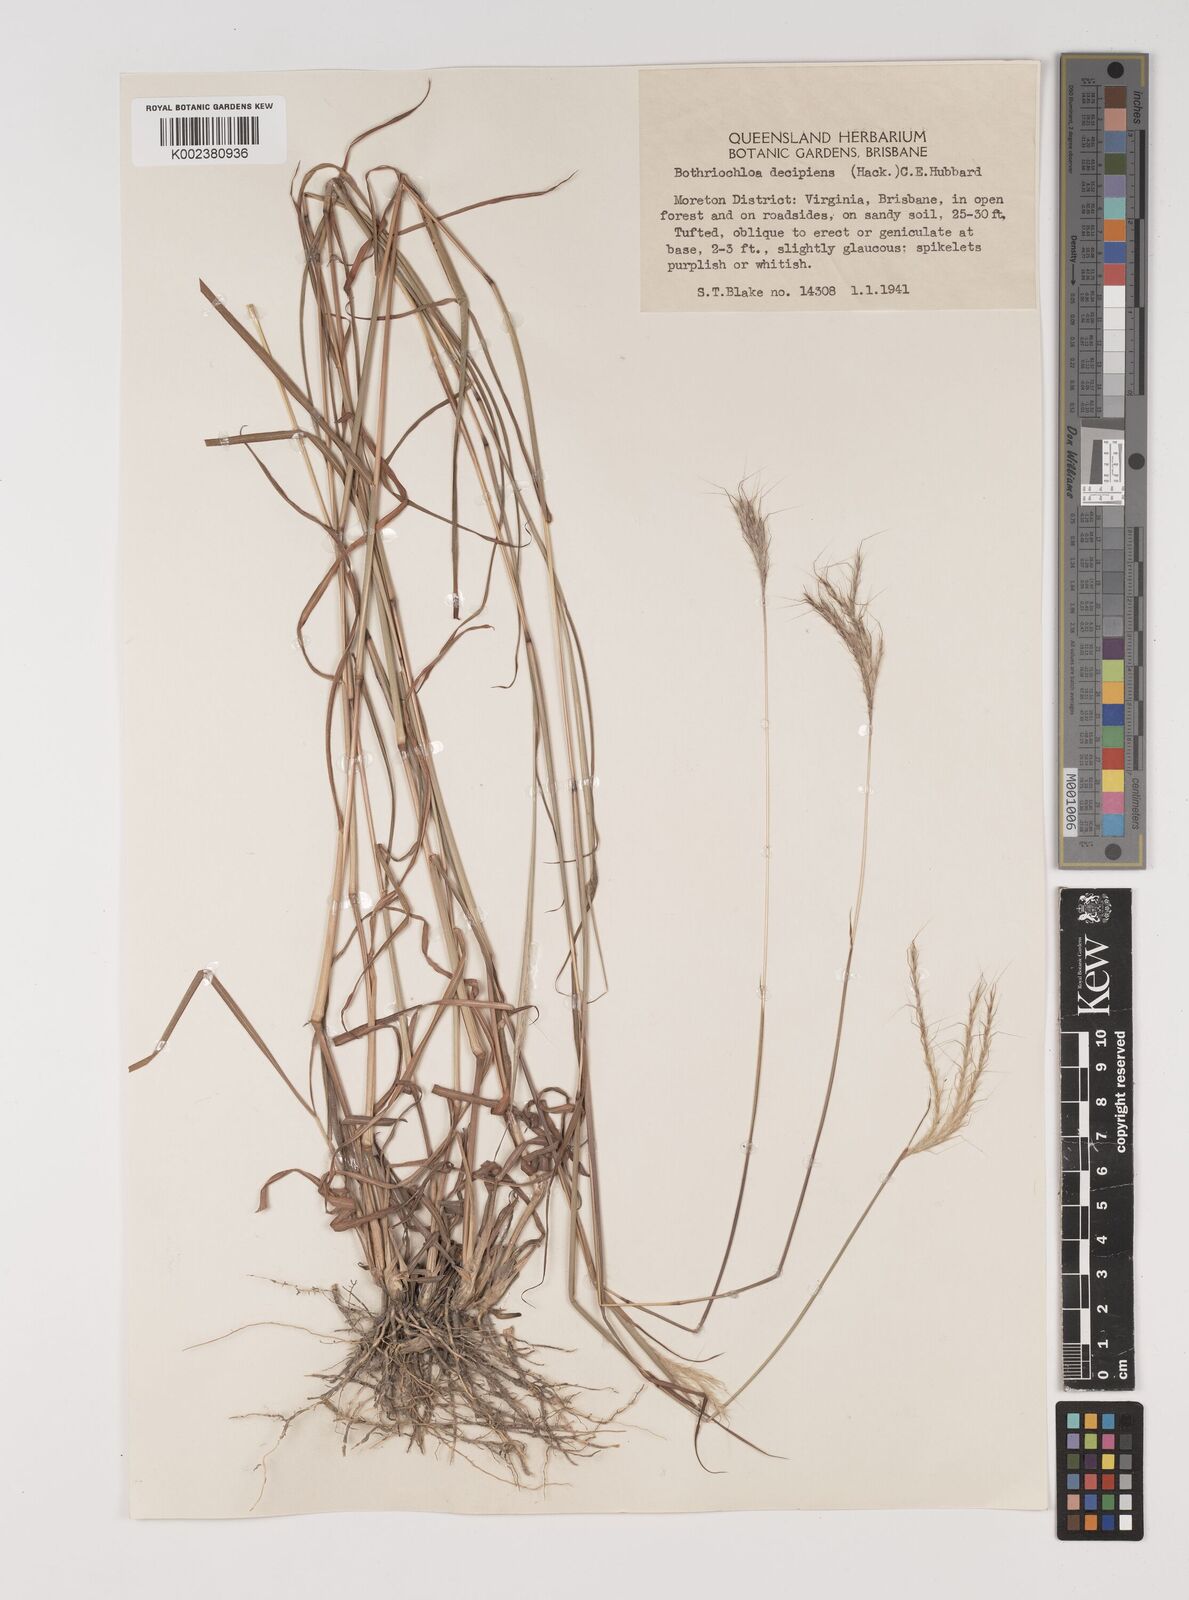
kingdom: Plantae
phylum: Tracheophyta
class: Liliopsida
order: Poales
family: Poaceae
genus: Bothriochloa
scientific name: Bothriochloa decipiens
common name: Pitted-bluegrass
